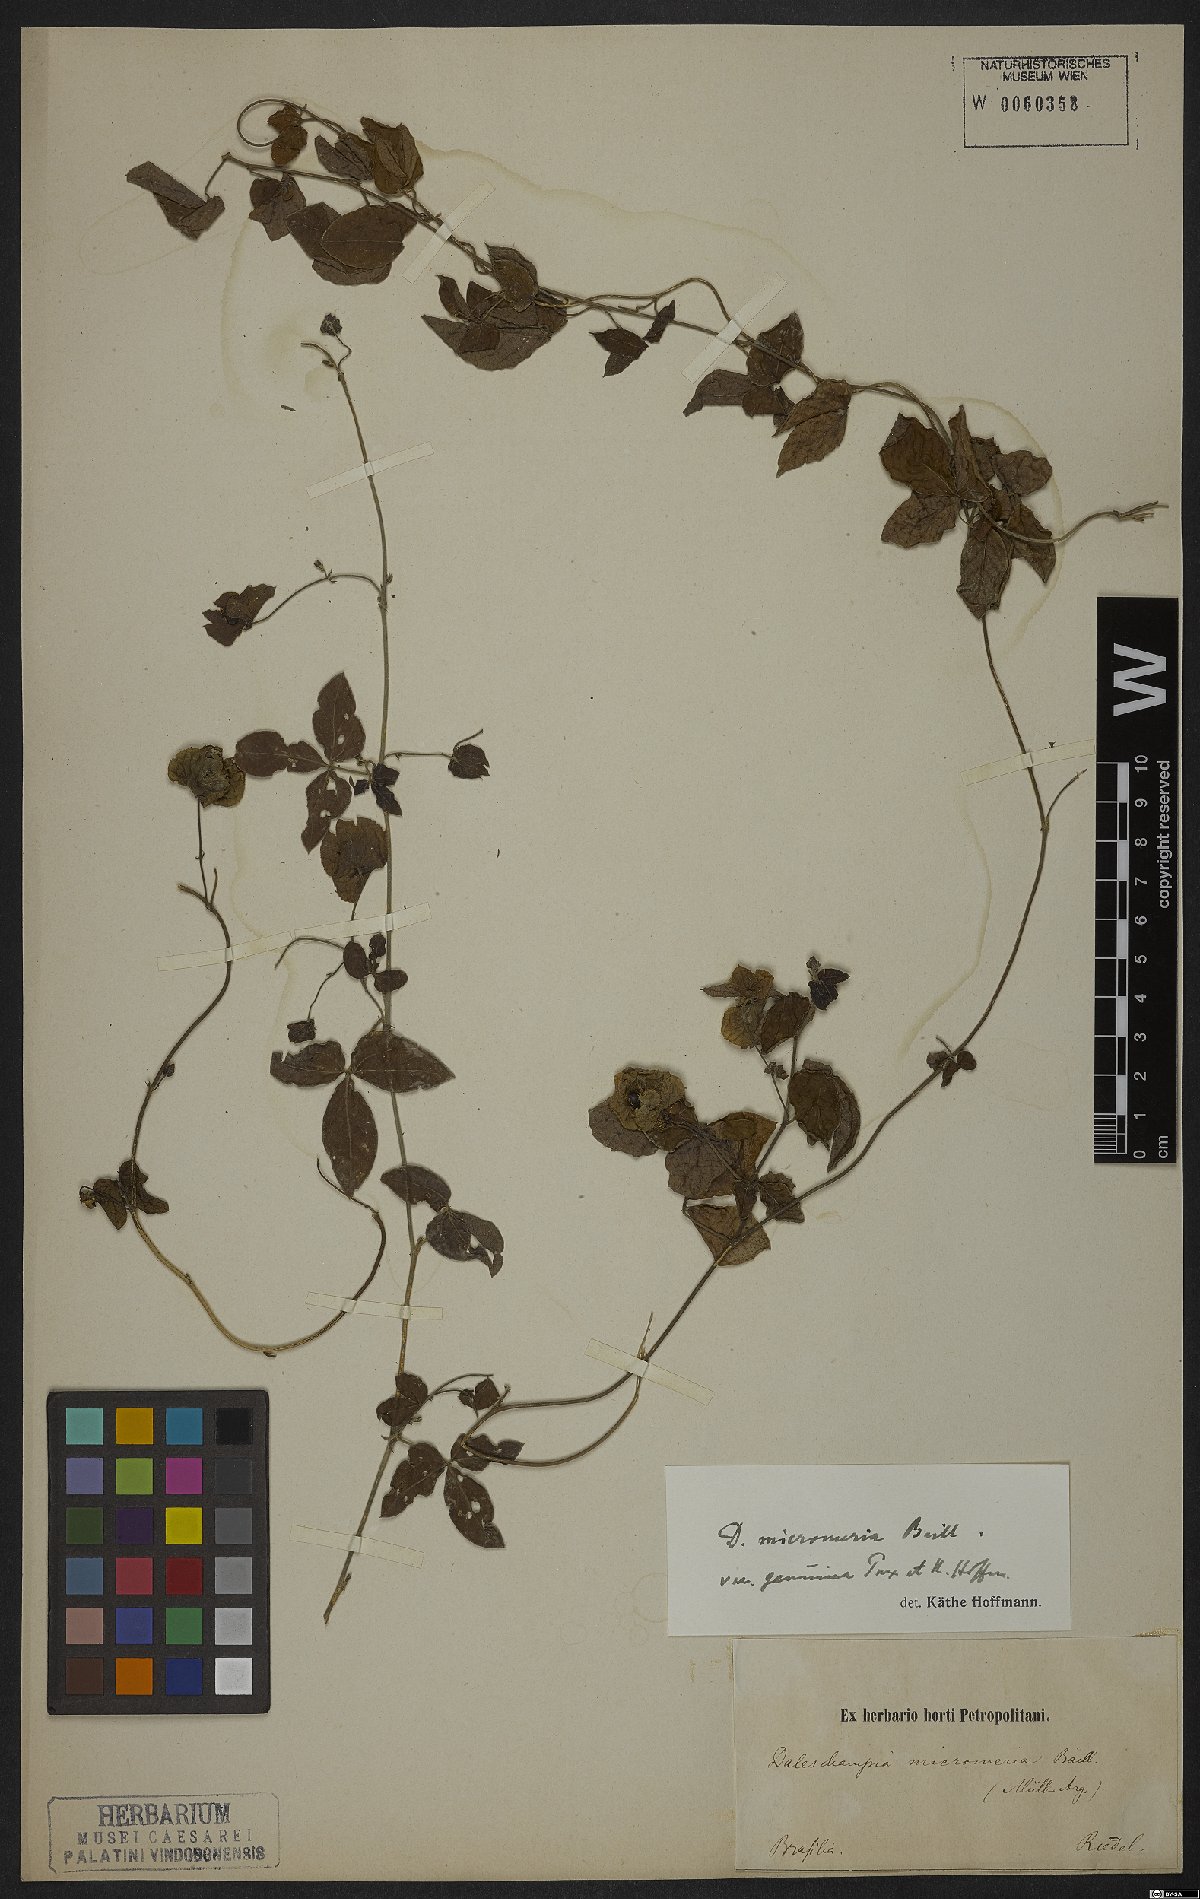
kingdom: Plantae
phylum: Tracheophyta
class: Magnoliopsida
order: Malpighiales
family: Euphorbiaceae
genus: Dalechampia
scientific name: Dalechampia micromeria
